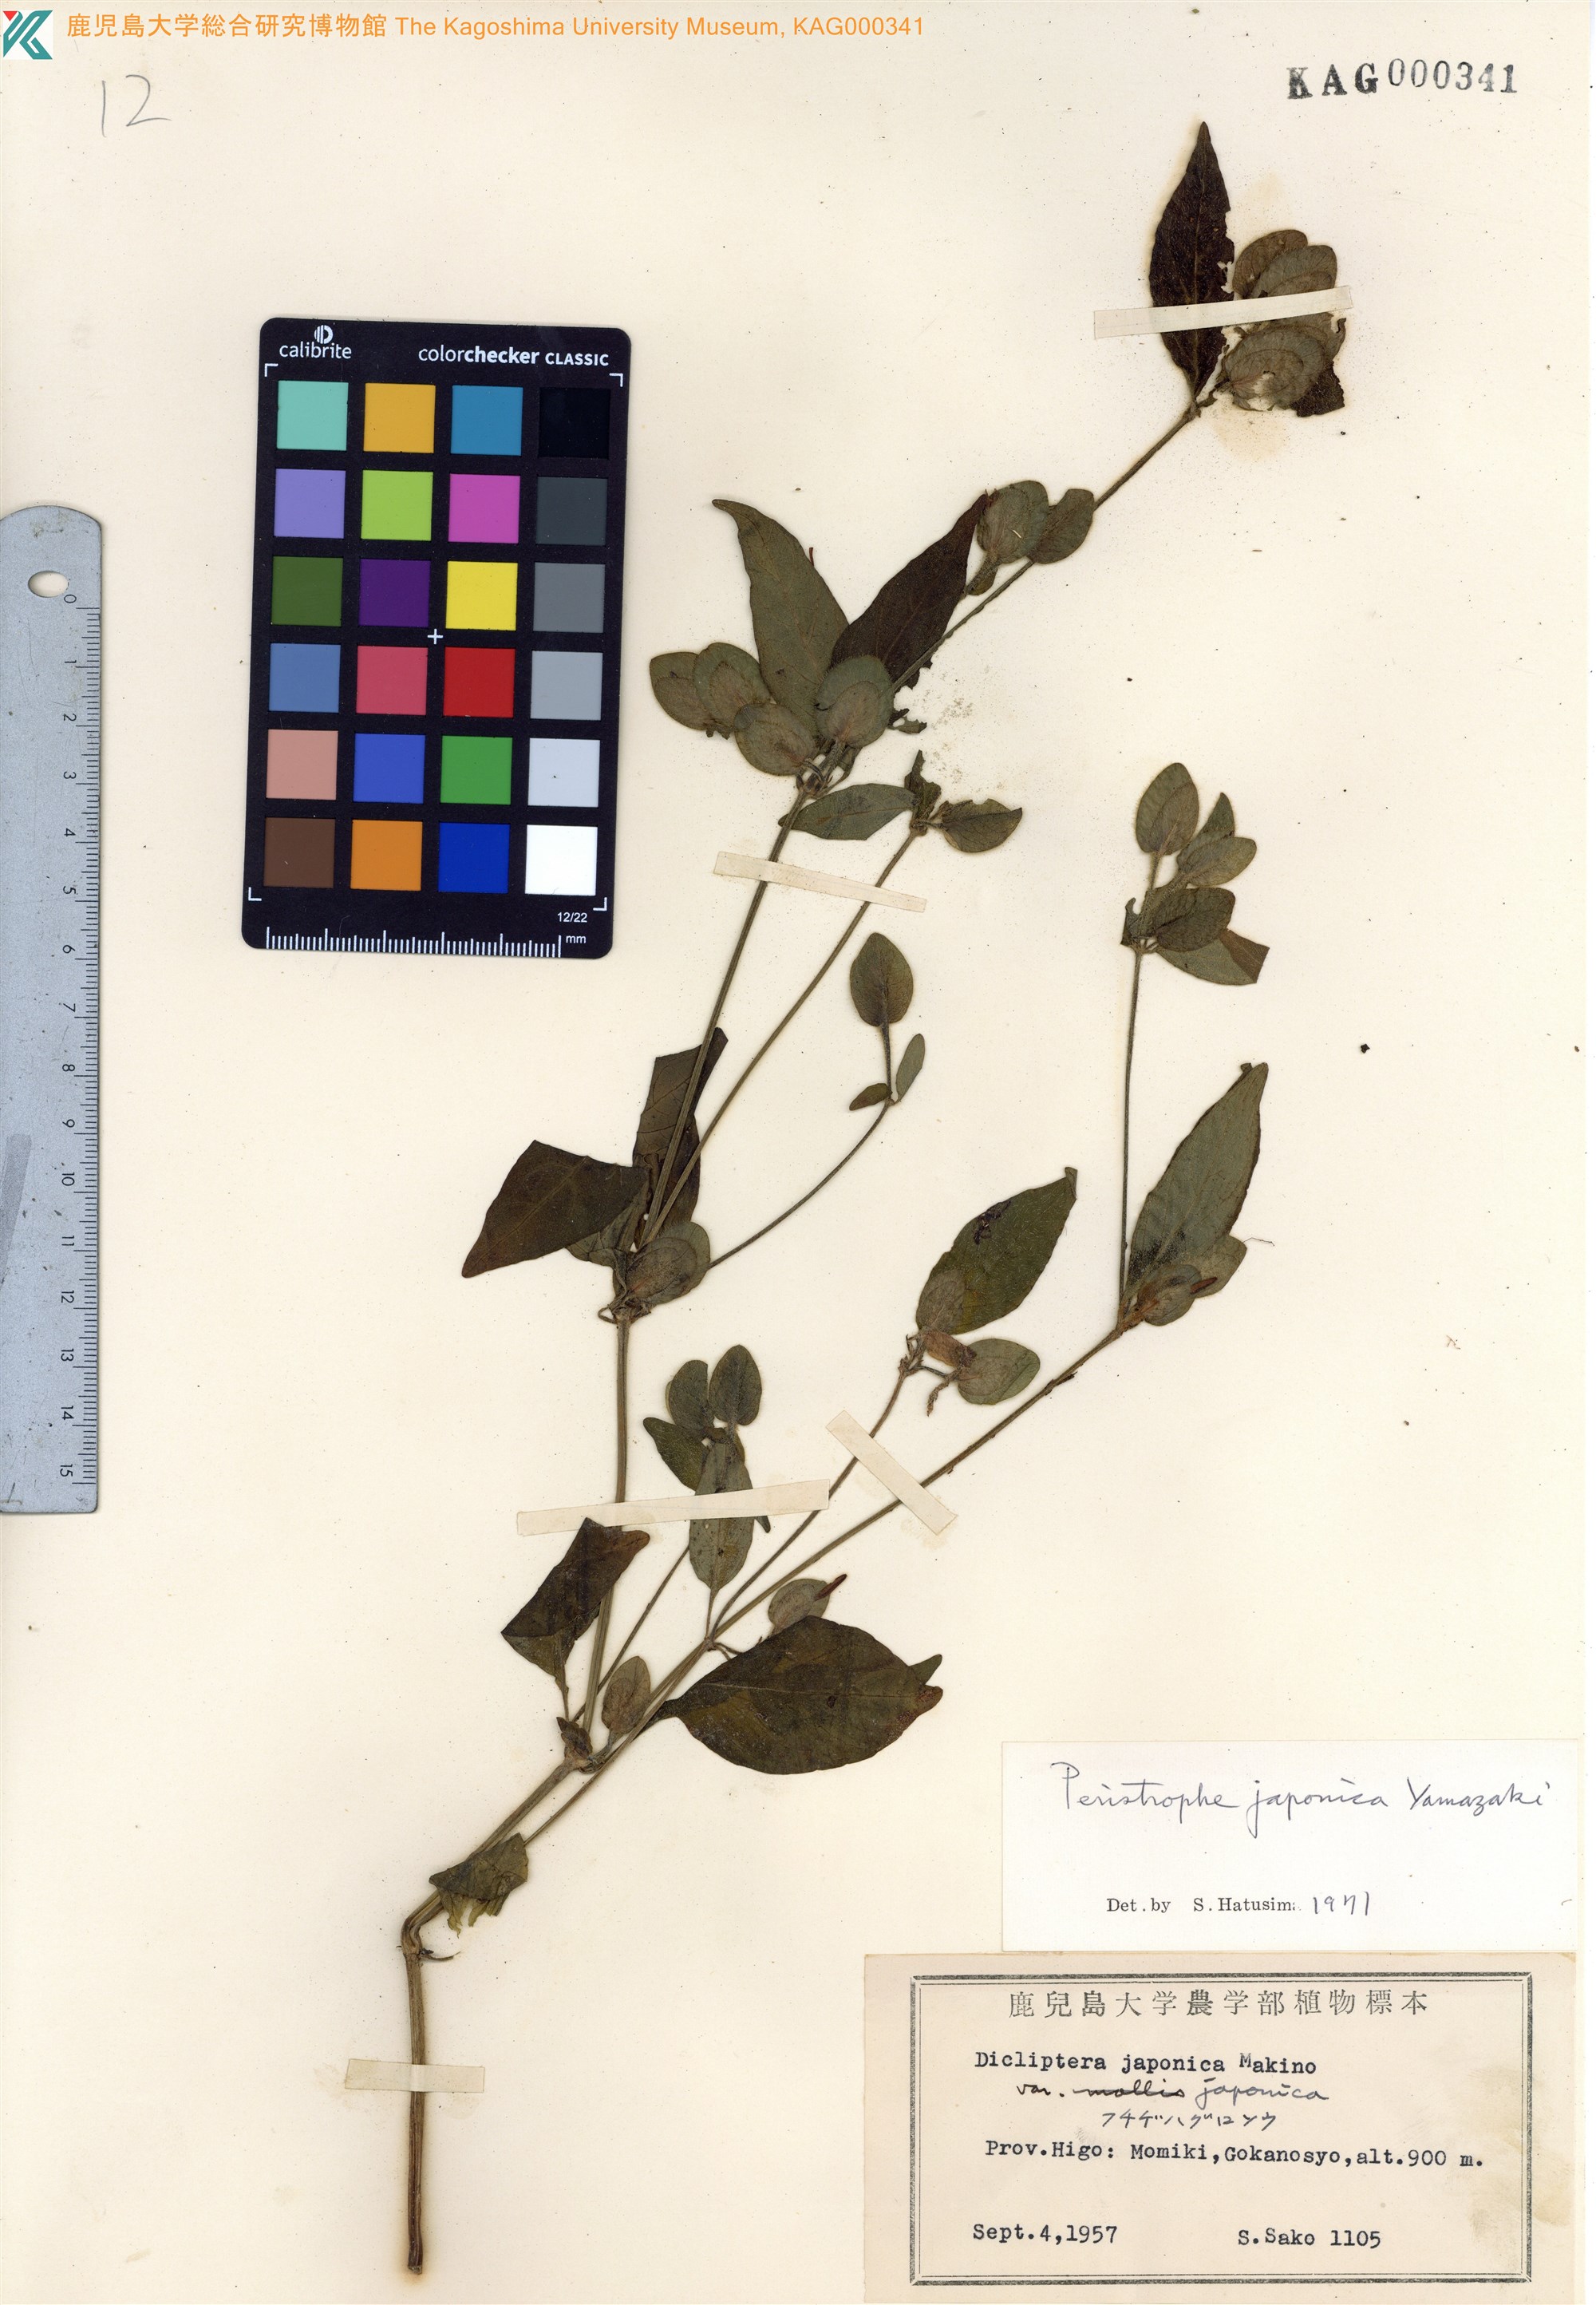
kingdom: Plantae
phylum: Tracheophyta
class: Magnoliopsida
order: Lamiales
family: Acanthaceae
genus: Dicliptera
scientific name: Dicliptera japonica
